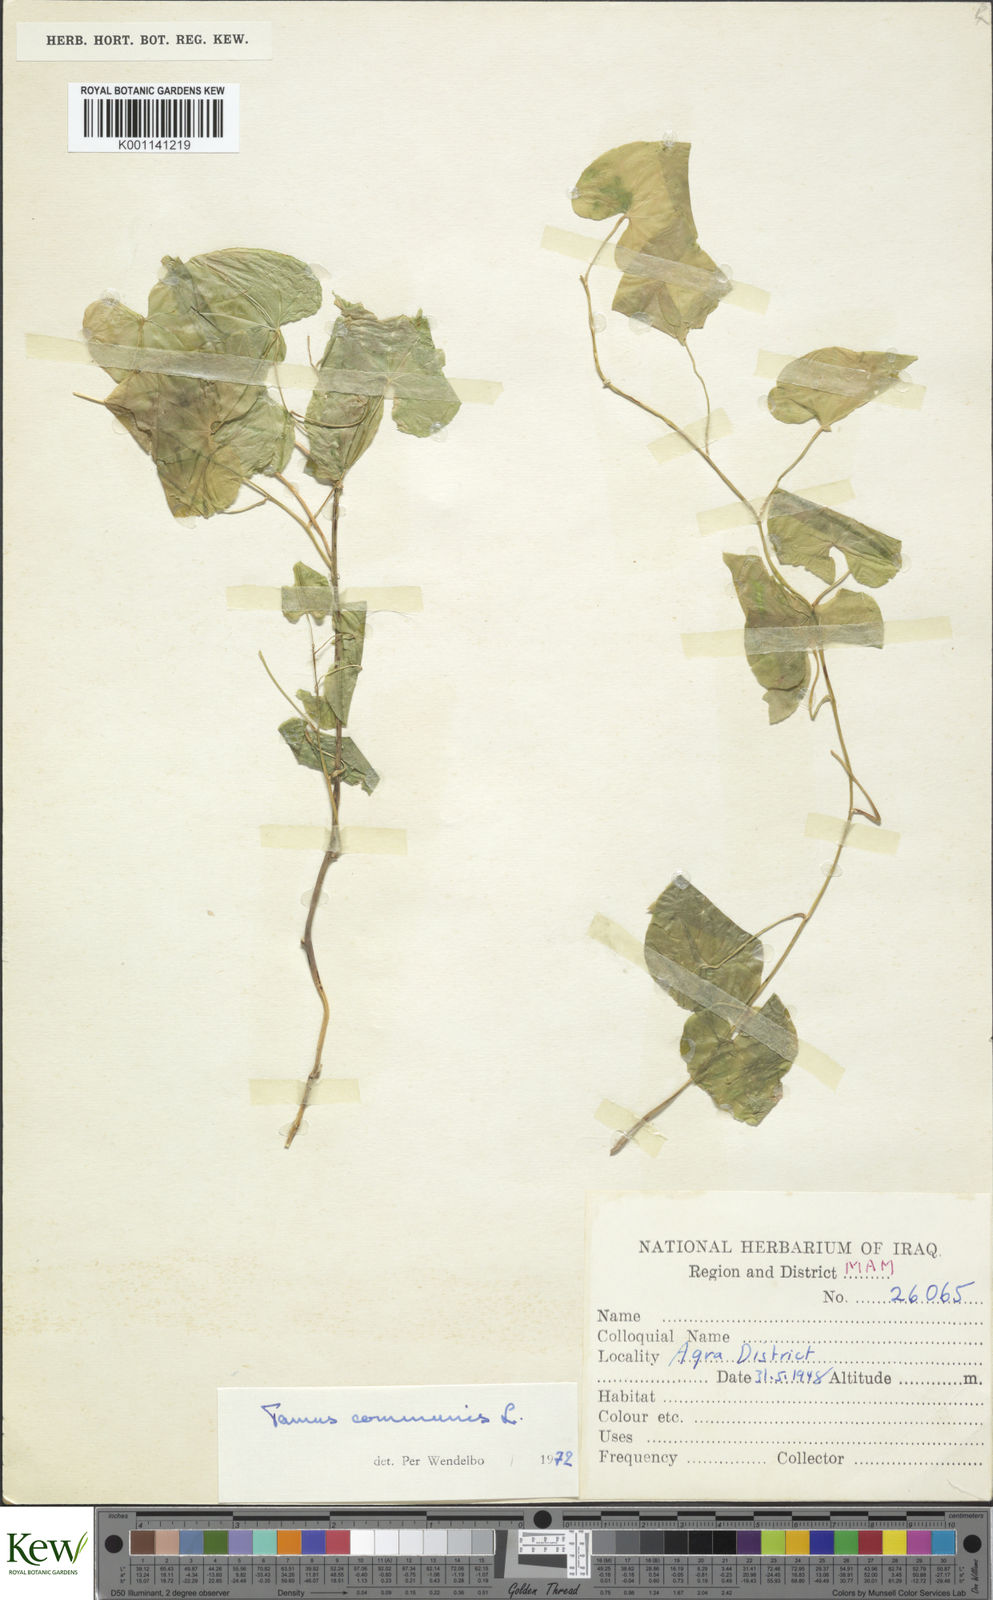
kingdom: Plantae
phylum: Tracheophyta
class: Liliopsida
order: Dioscoreales
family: Dioscoreaceae
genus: Dioscorea
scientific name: Dioscorea communis
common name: Black-bindweed
